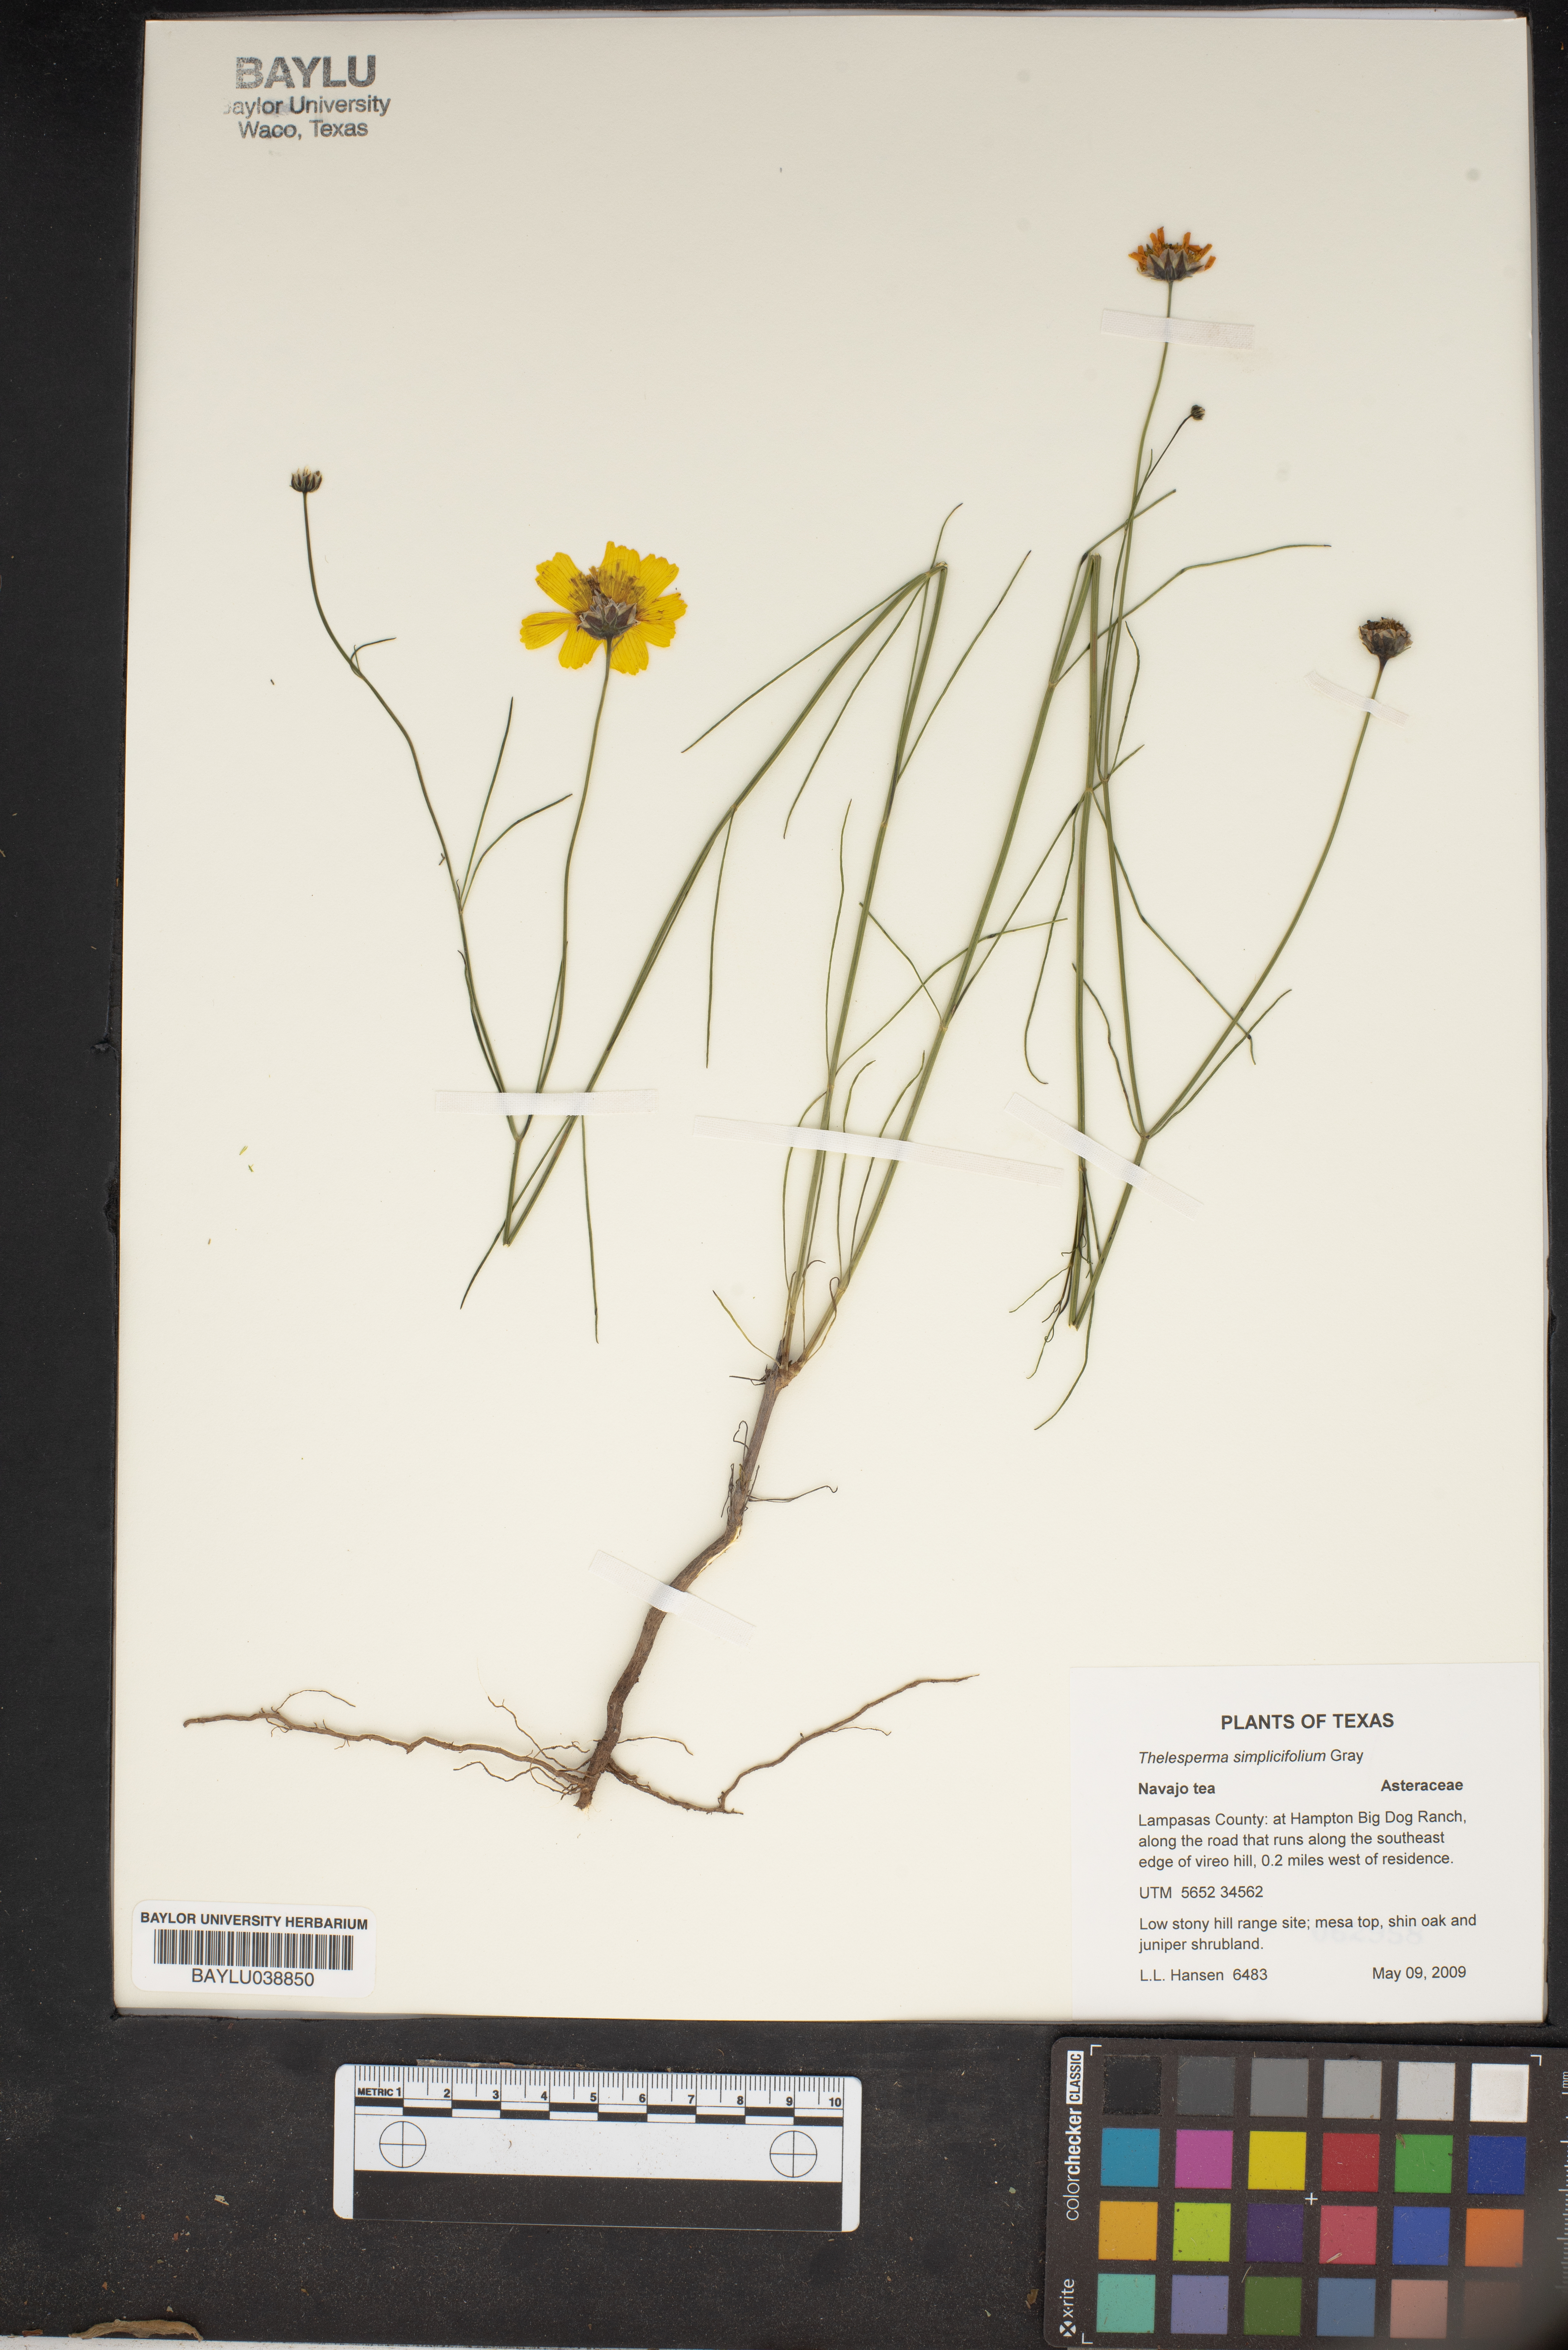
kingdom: Plantae
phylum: Tracheophyta
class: Magnoliopsida
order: Asterales
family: Asteraceae
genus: Thelesperma
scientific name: Thelesperma simplicifolium
